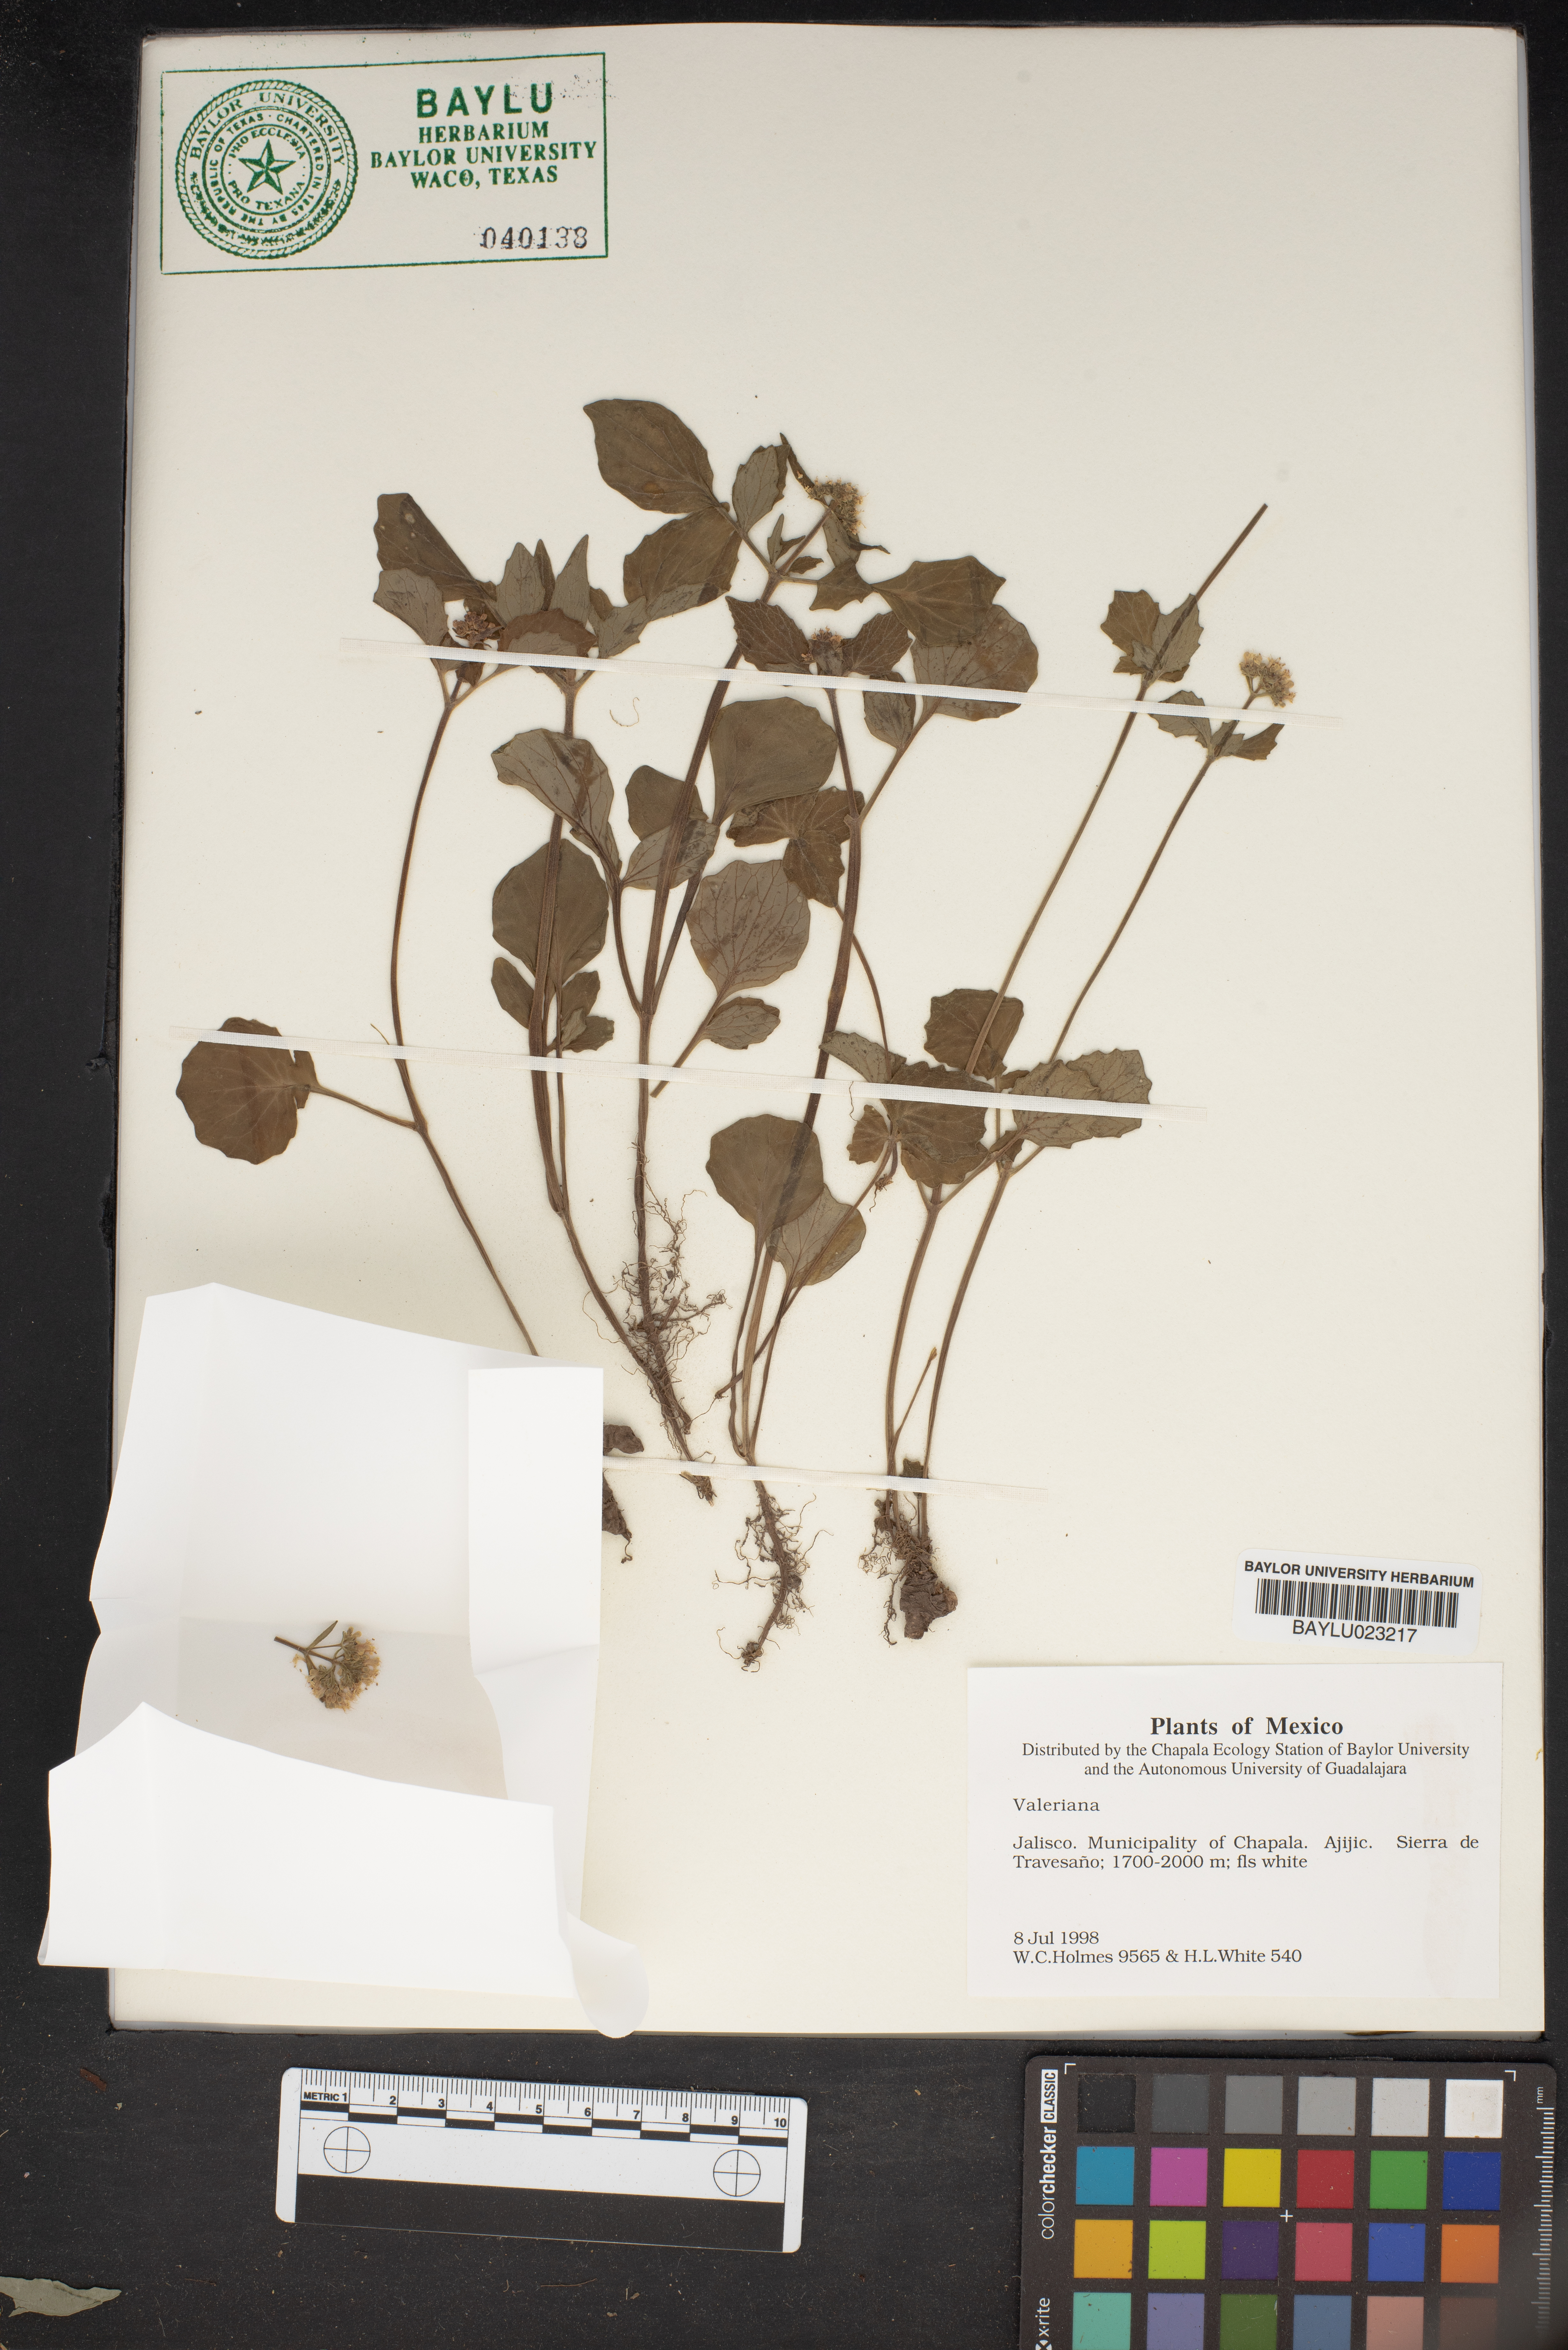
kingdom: Plantae
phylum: Tracheophyta
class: Magnoliopsida
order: Dipsacales
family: Caprifoliaceae
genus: Valeriana
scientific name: Valeriana
